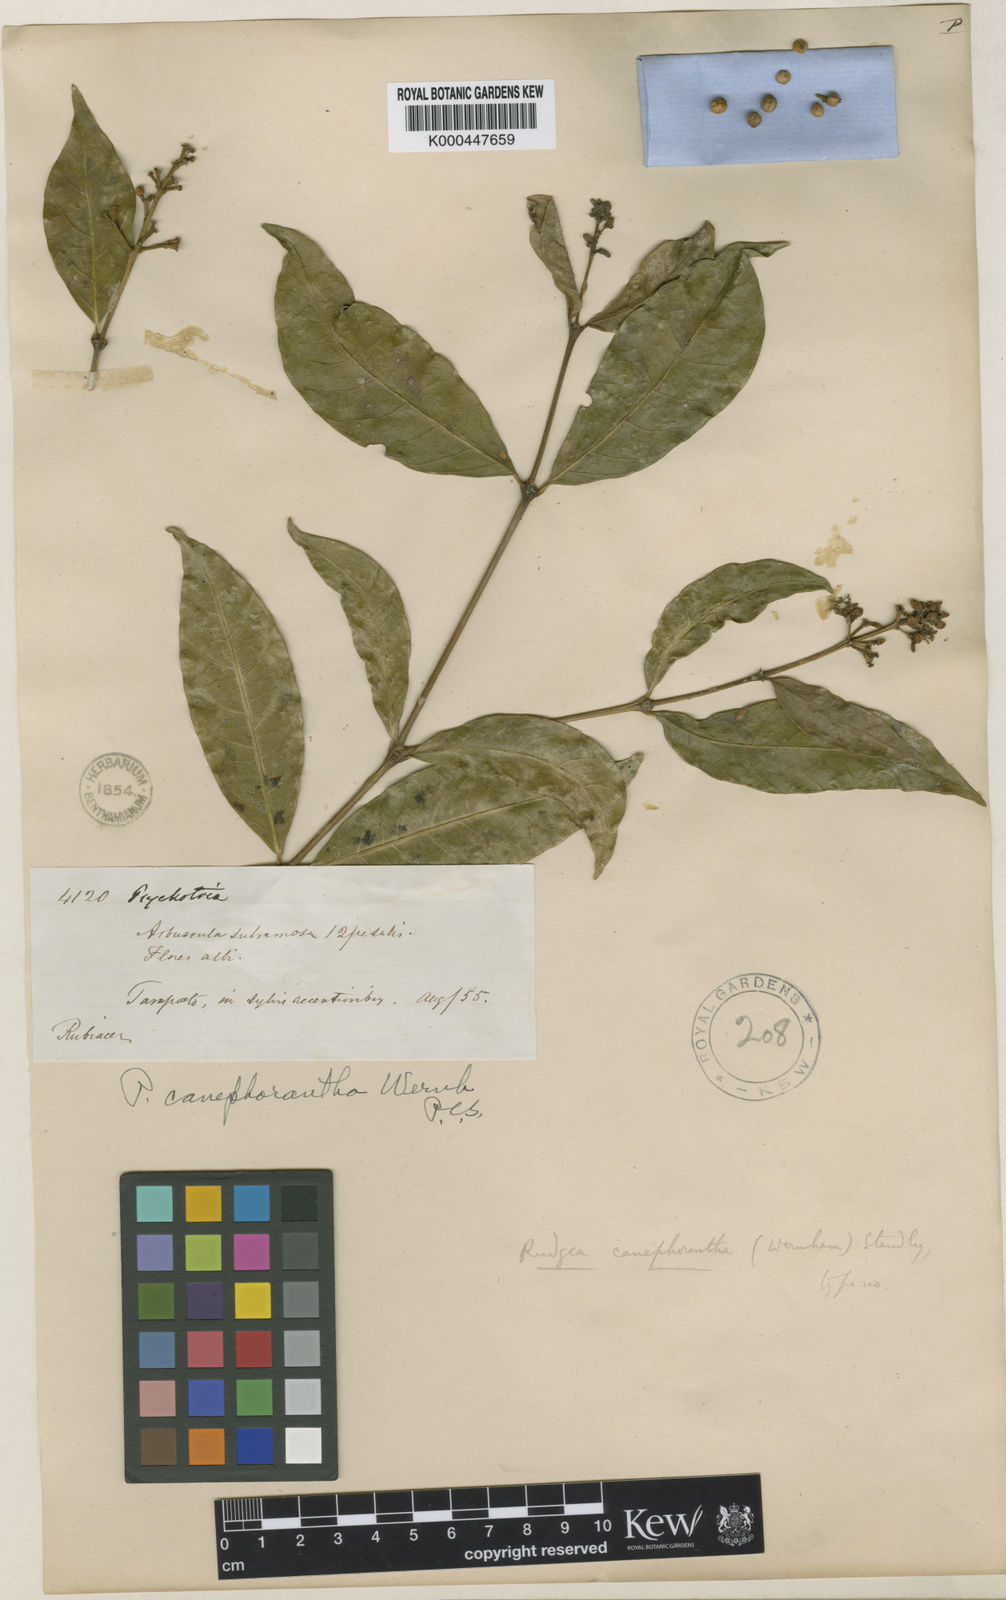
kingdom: Plantae
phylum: Tracheophyta
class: Magnoliopsida
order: Gentianales
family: Rubiaceae
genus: Rudgea
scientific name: Rudgea
